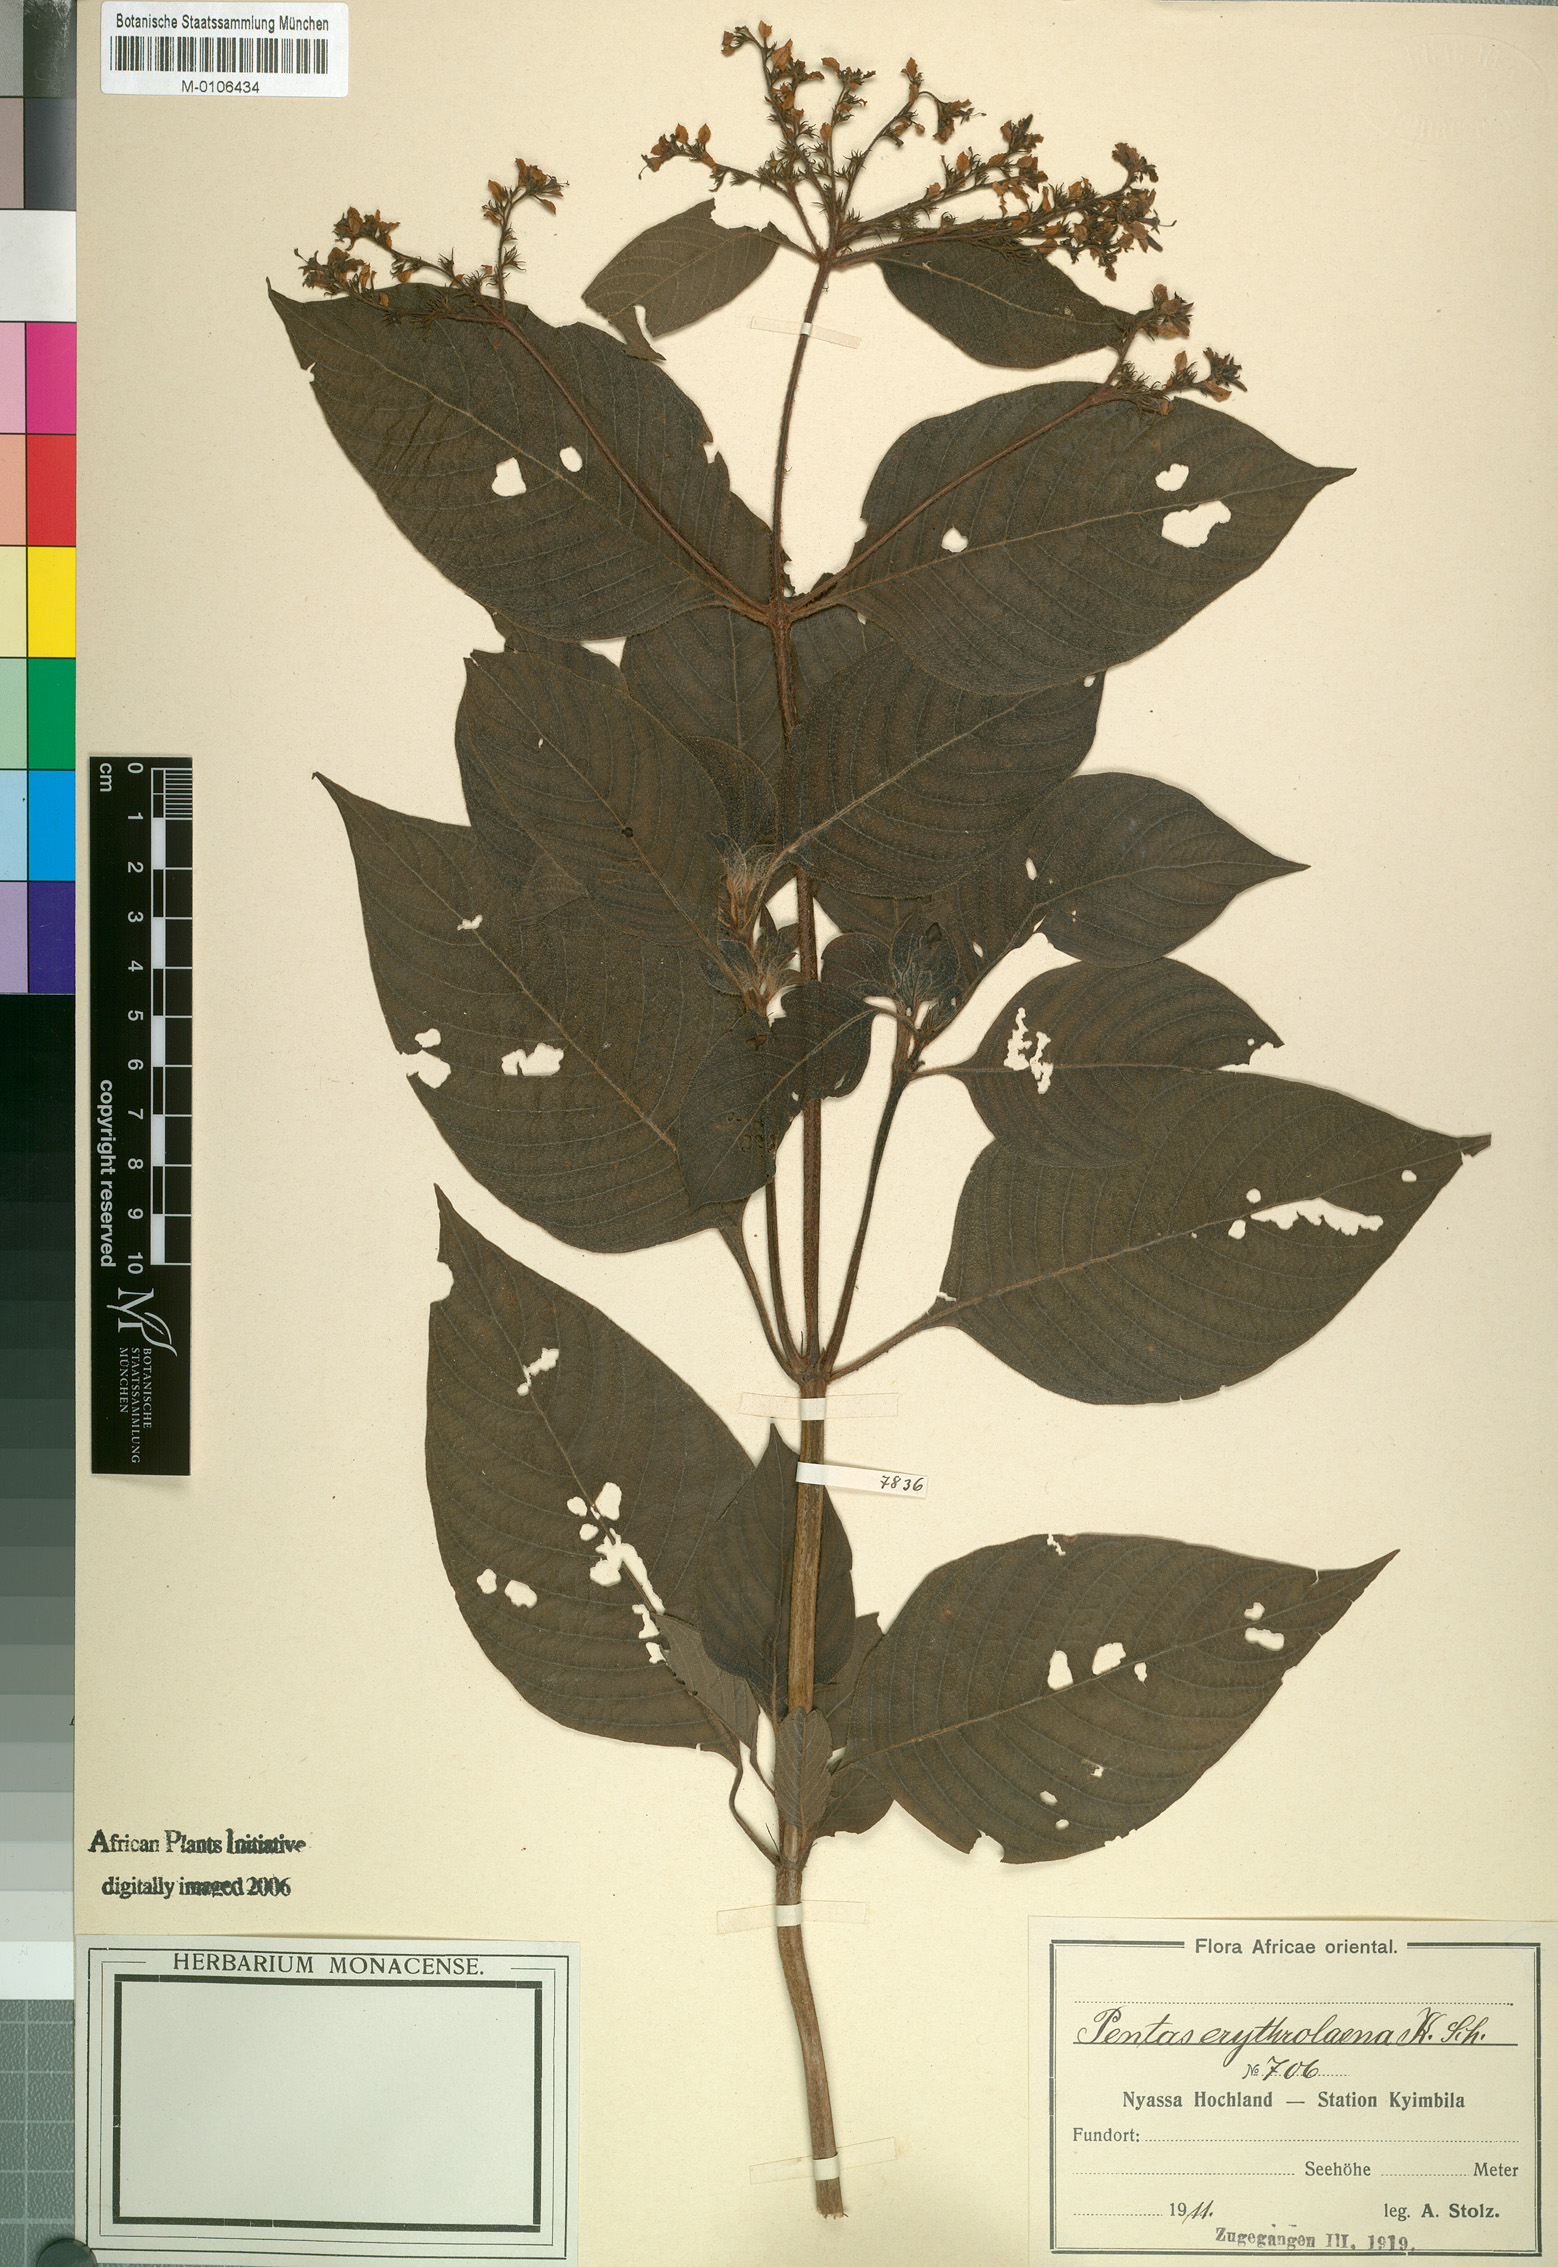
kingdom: Plantae
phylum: Tracheophyta
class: Magnoliopsida
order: Gentianales
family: Rubiaceae
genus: Pentas
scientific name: Pentas
